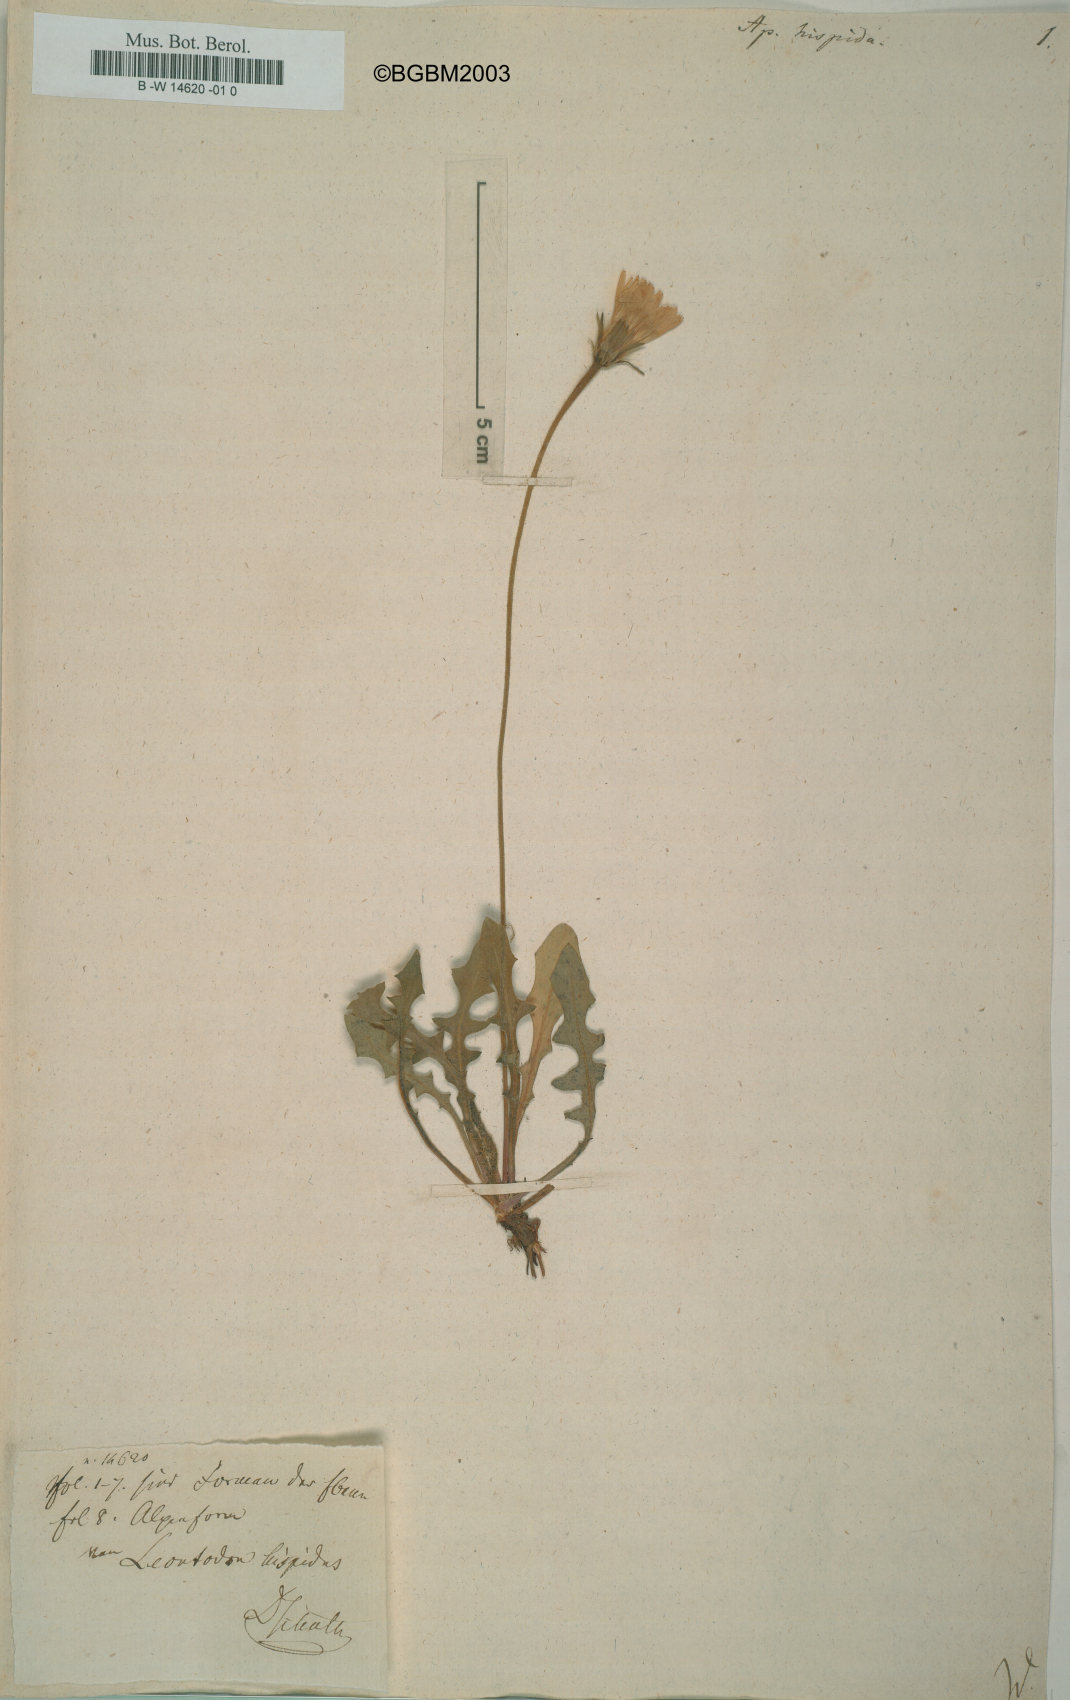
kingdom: Plantae
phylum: Tracheophyta
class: Magnoliopsida
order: Asterales
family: Asteraceae
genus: Leontodon
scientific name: Leontodon
